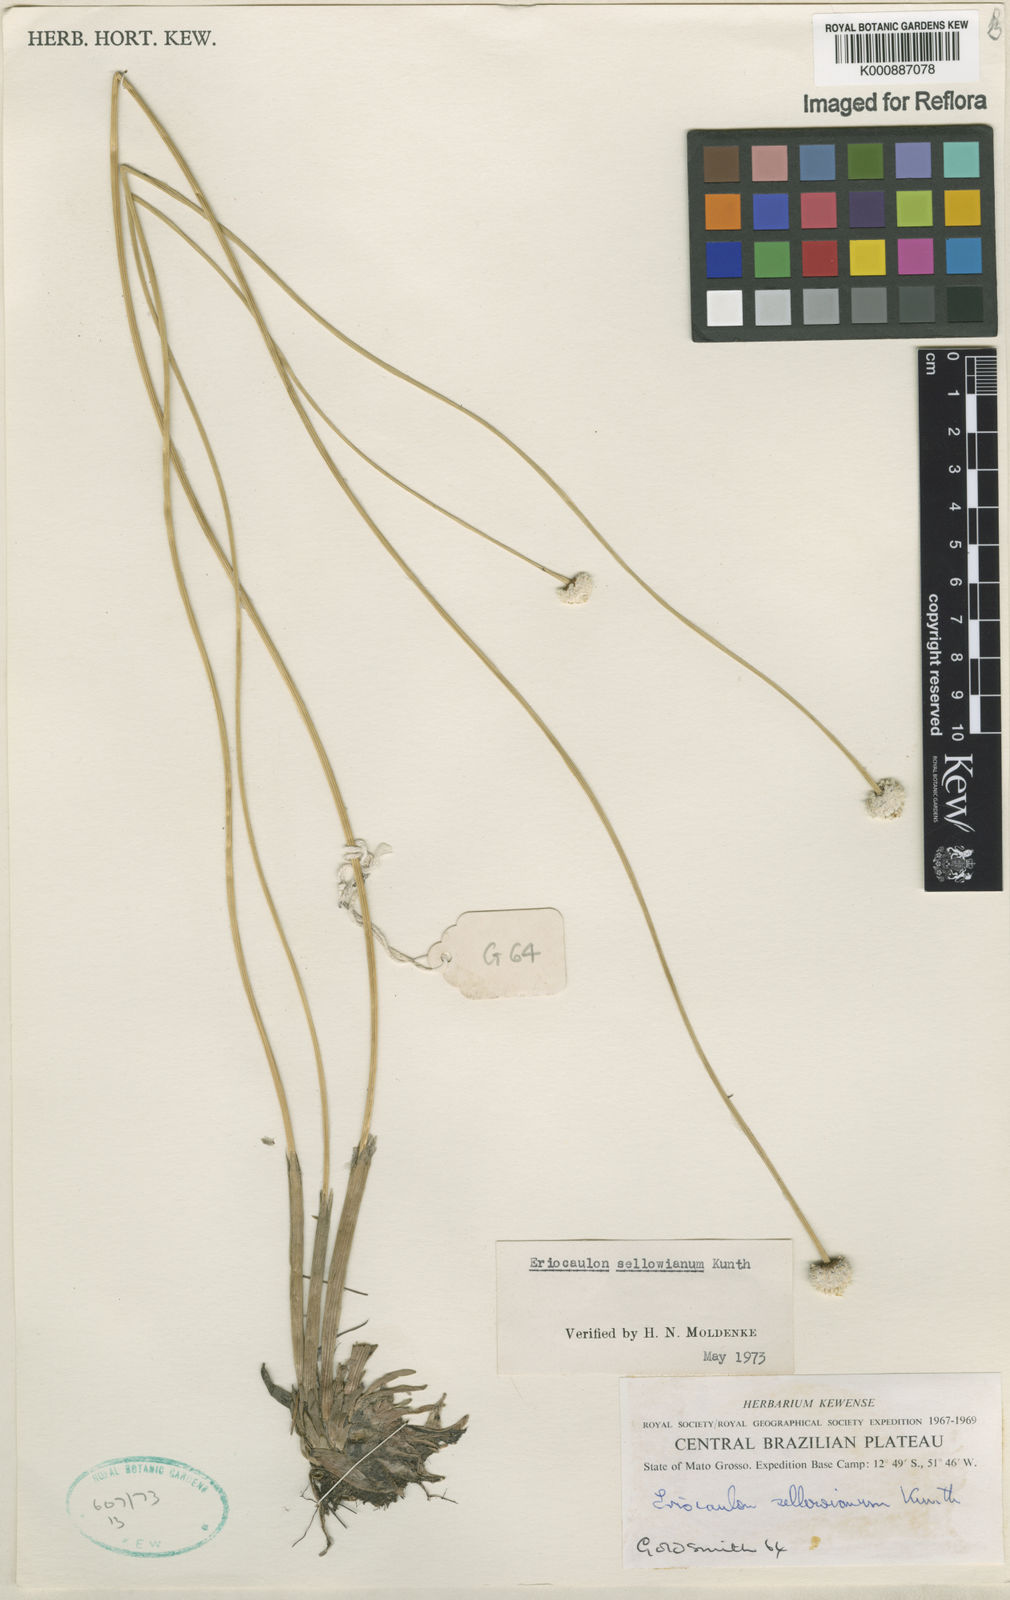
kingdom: Plantae
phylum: Tracheophyta
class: Liliopsida
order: Poales
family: Eriocaulaceae
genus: Eriocaulon
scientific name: Eriocaulon sellowianum
